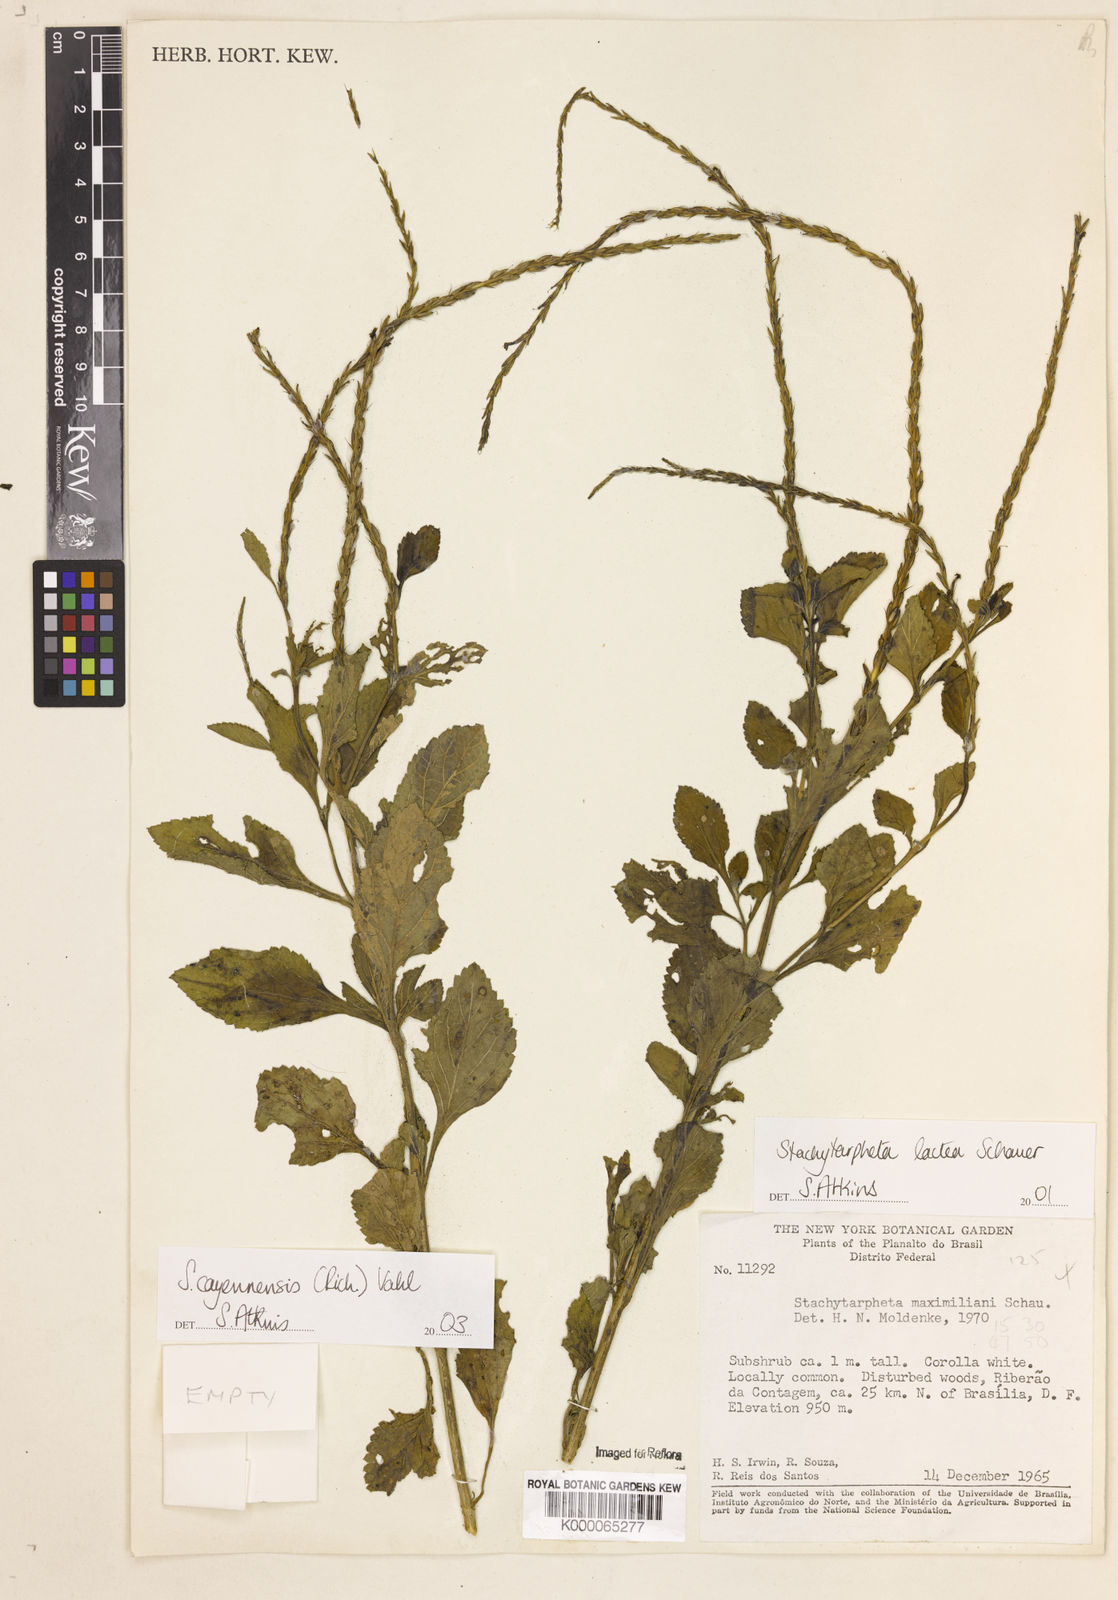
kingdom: Plantae
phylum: Tracheophyta
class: Magnoliopsida
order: Lamiales
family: Verbenaceae
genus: Stachytarpheta
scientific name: Stachytarpheta polyura
